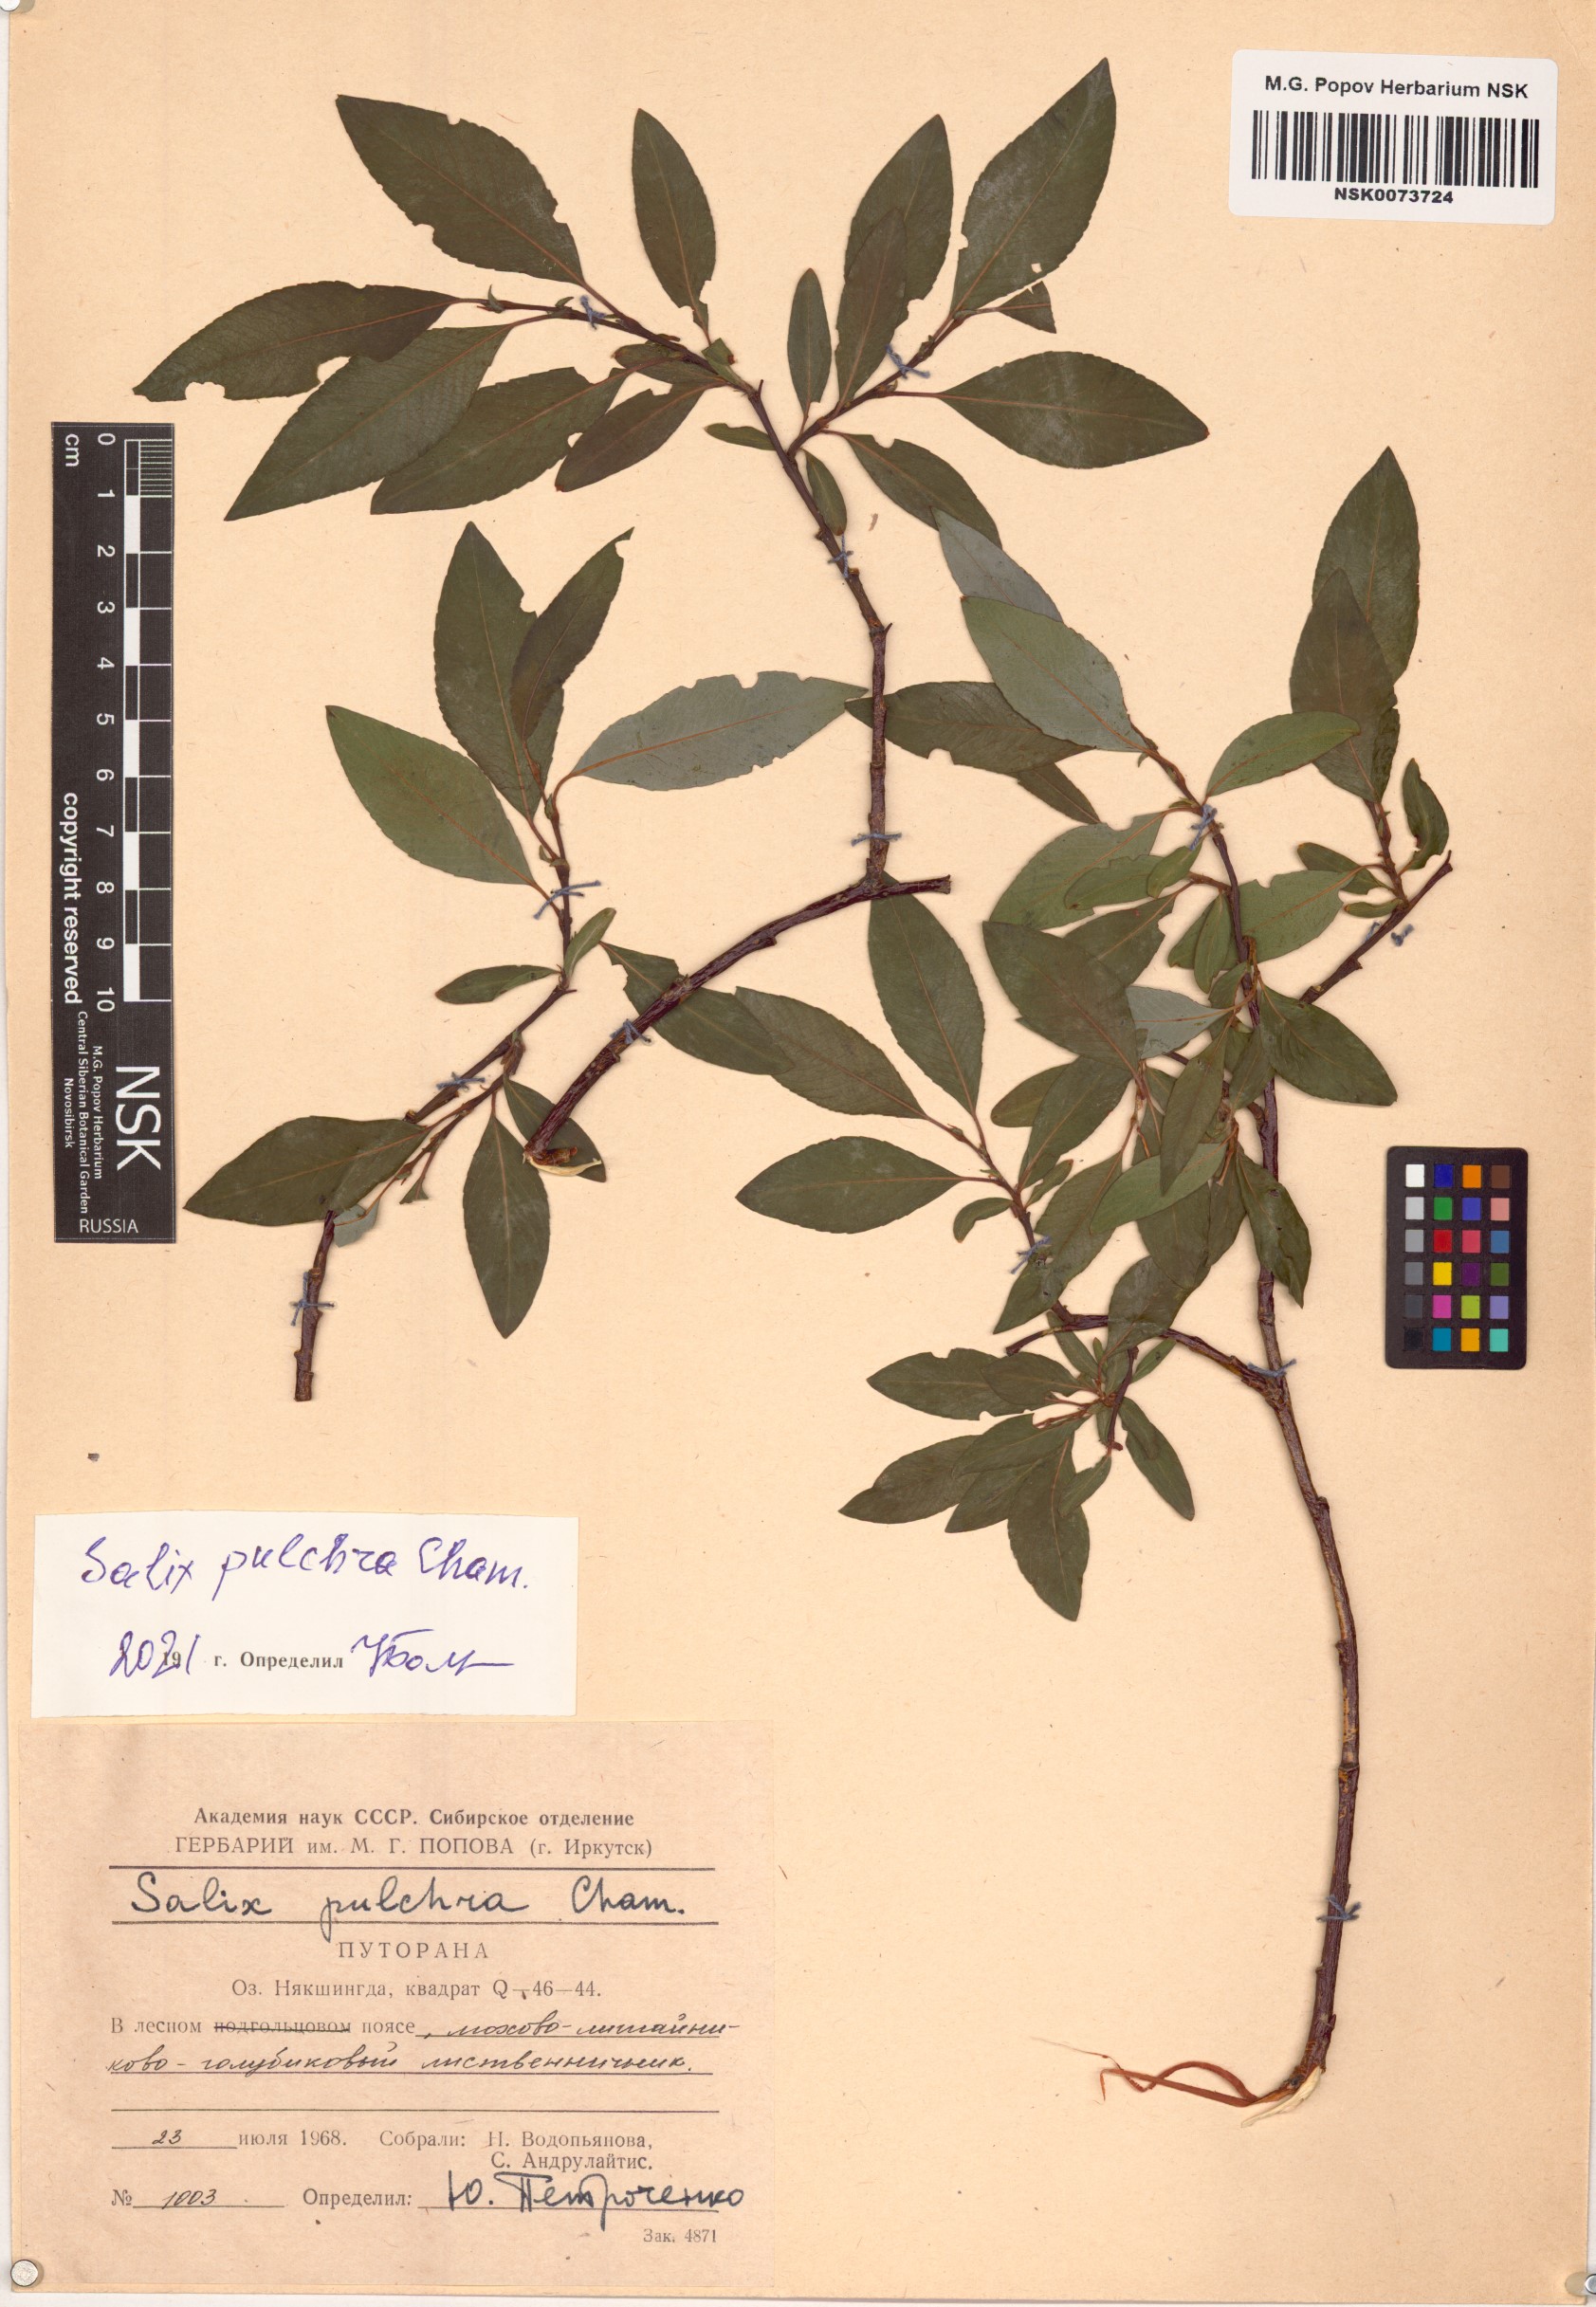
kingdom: Plantae
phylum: Tracheophyta
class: Magnoliopsida
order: Malpighiales
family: Salicaceae
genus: Salix
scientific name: Salix pulchra
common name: Diamond-leaved willow
